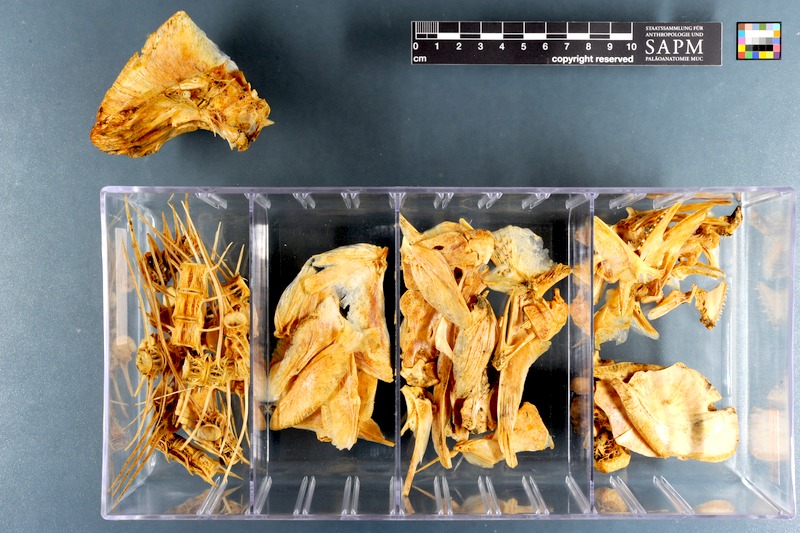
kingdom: Animalia
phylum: Chordata
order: Perciformes
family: Bramidae
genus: Brama
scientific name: Brama brama
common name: Ray's bream
